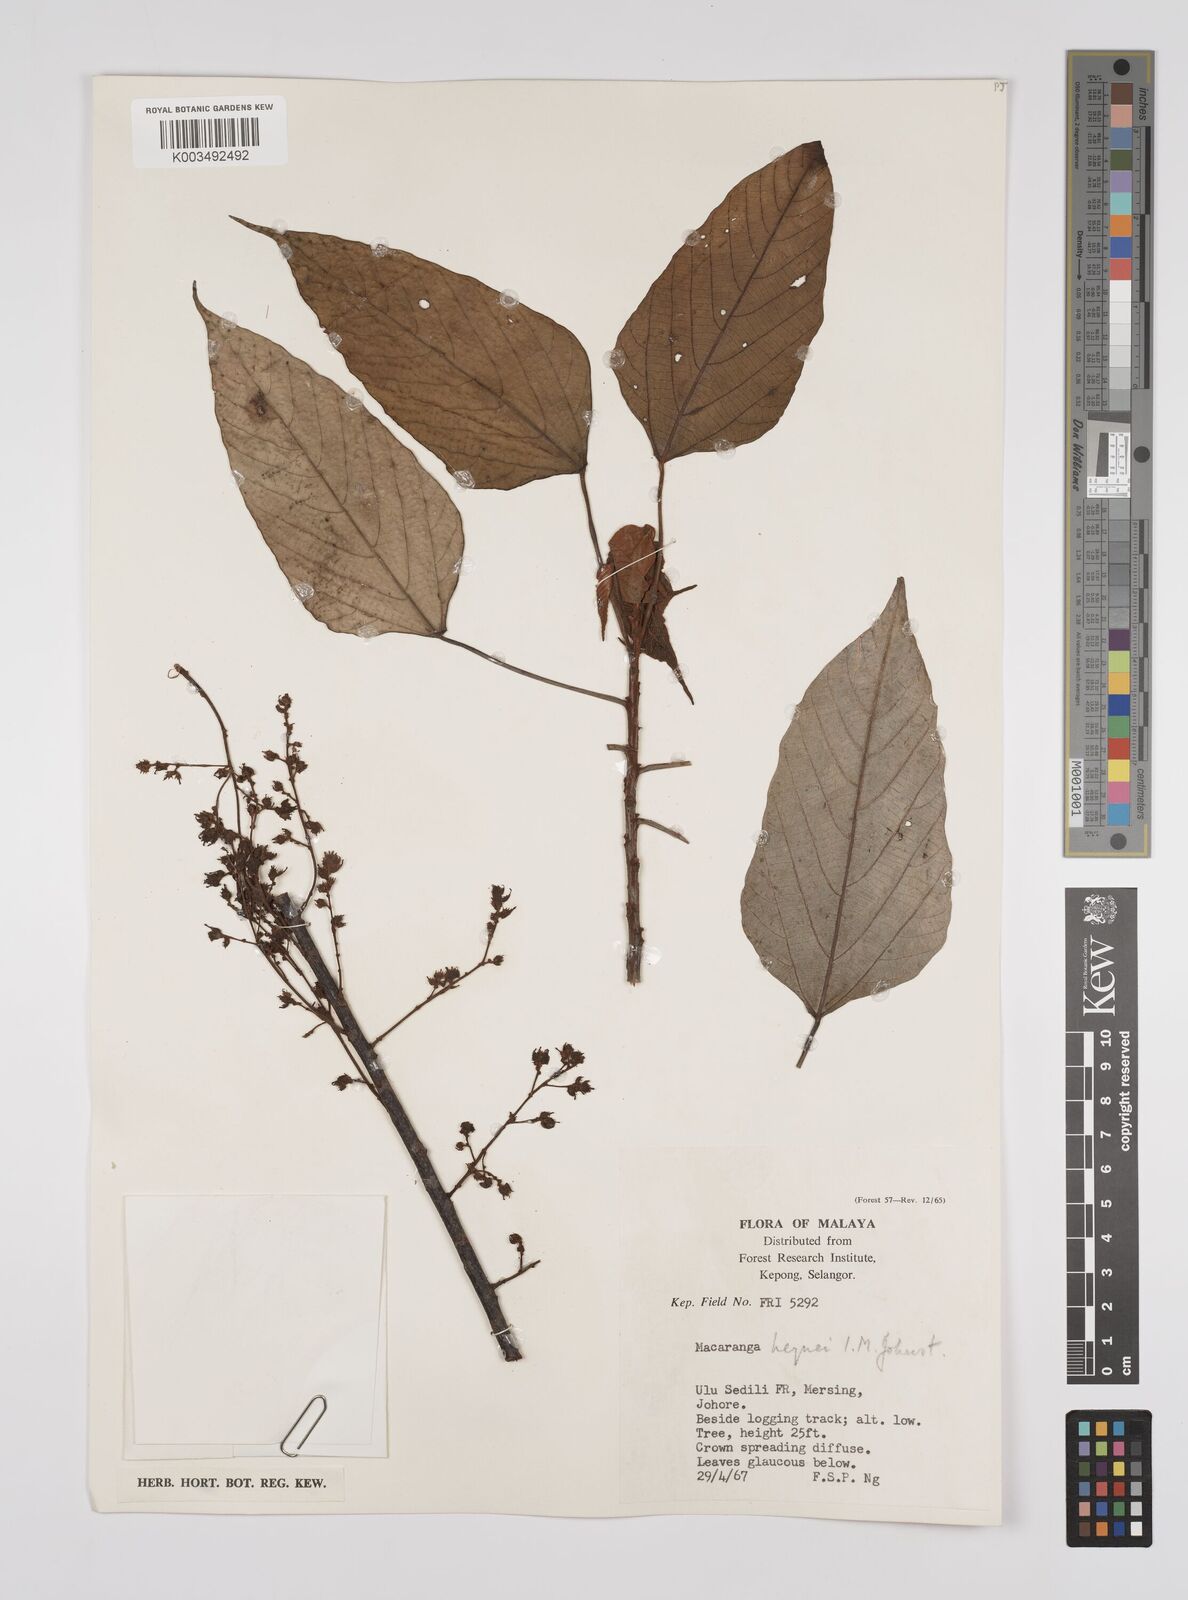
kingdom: Plantae
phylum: Tracheophyta
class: Magnoliopsida
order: Malpighiales
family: Euphorbiaceae
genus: Macaranga
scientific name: Macaranga heynei
